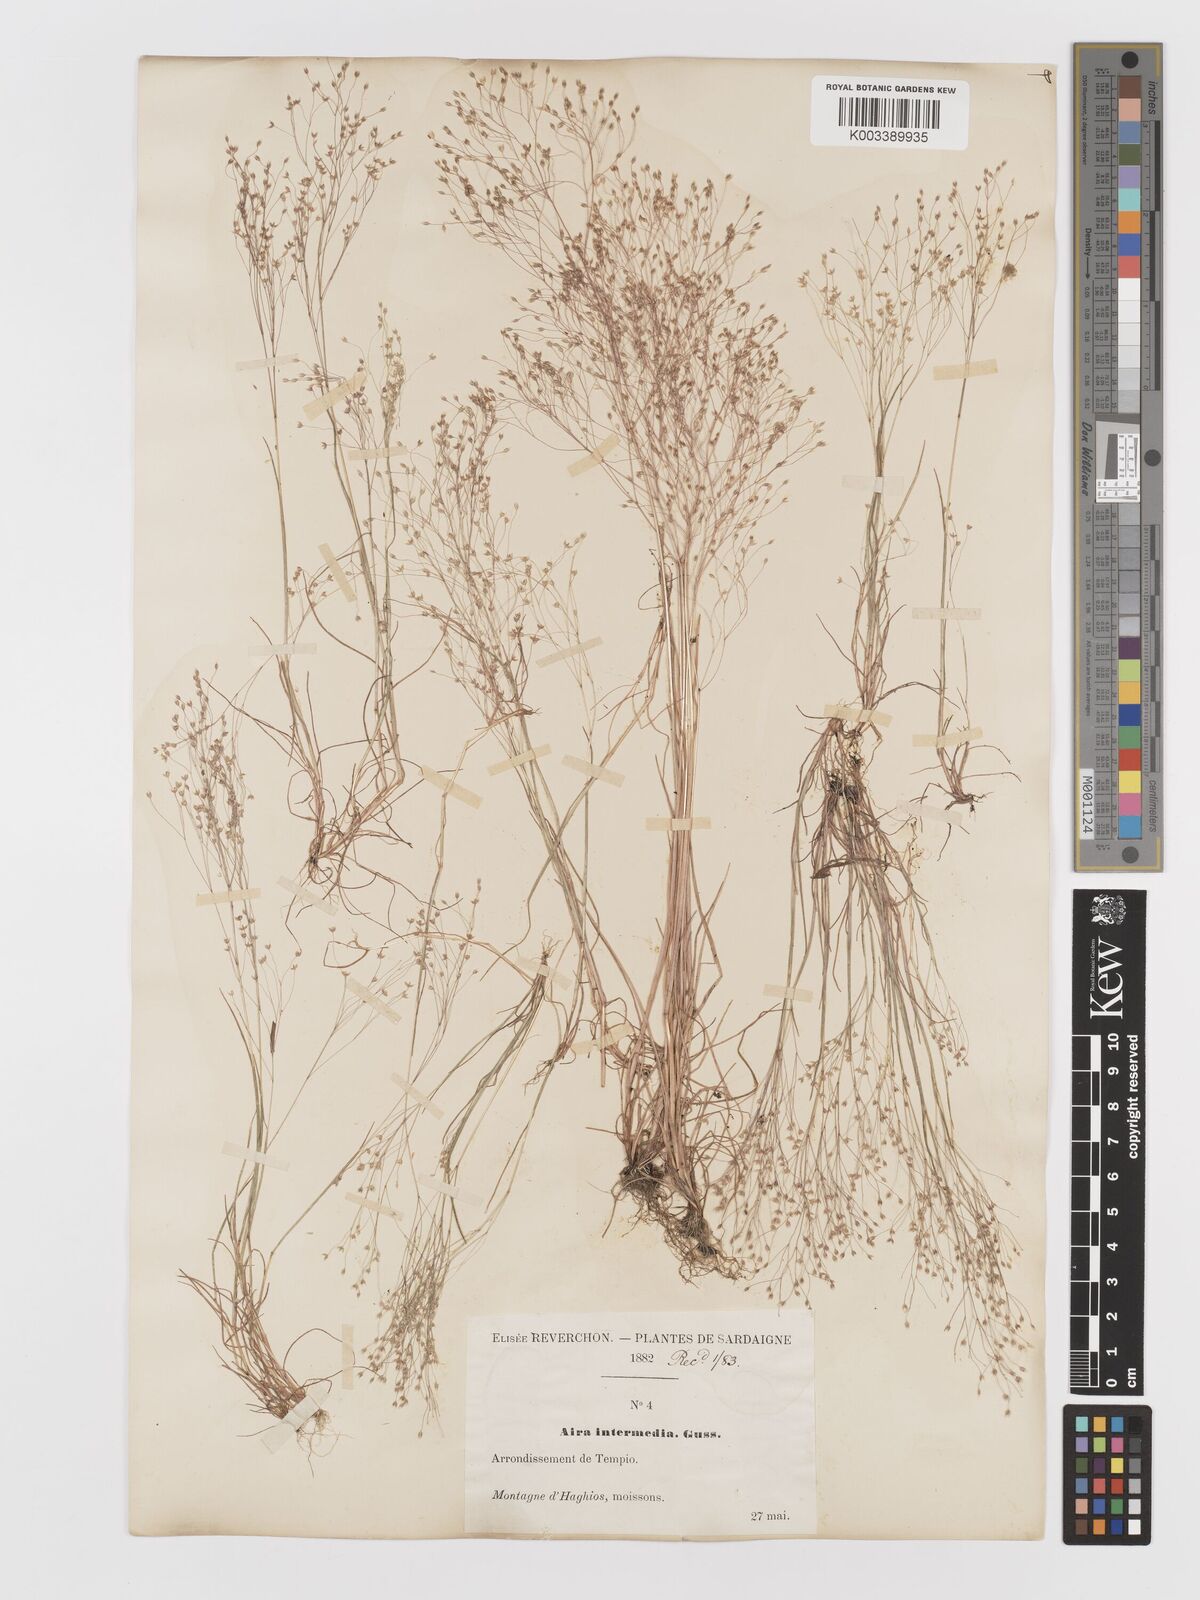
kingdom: Plantae
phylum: Tracheophyta
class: Liliopsida
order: Poales
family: Poaceae
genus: Aira
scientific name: Aira
